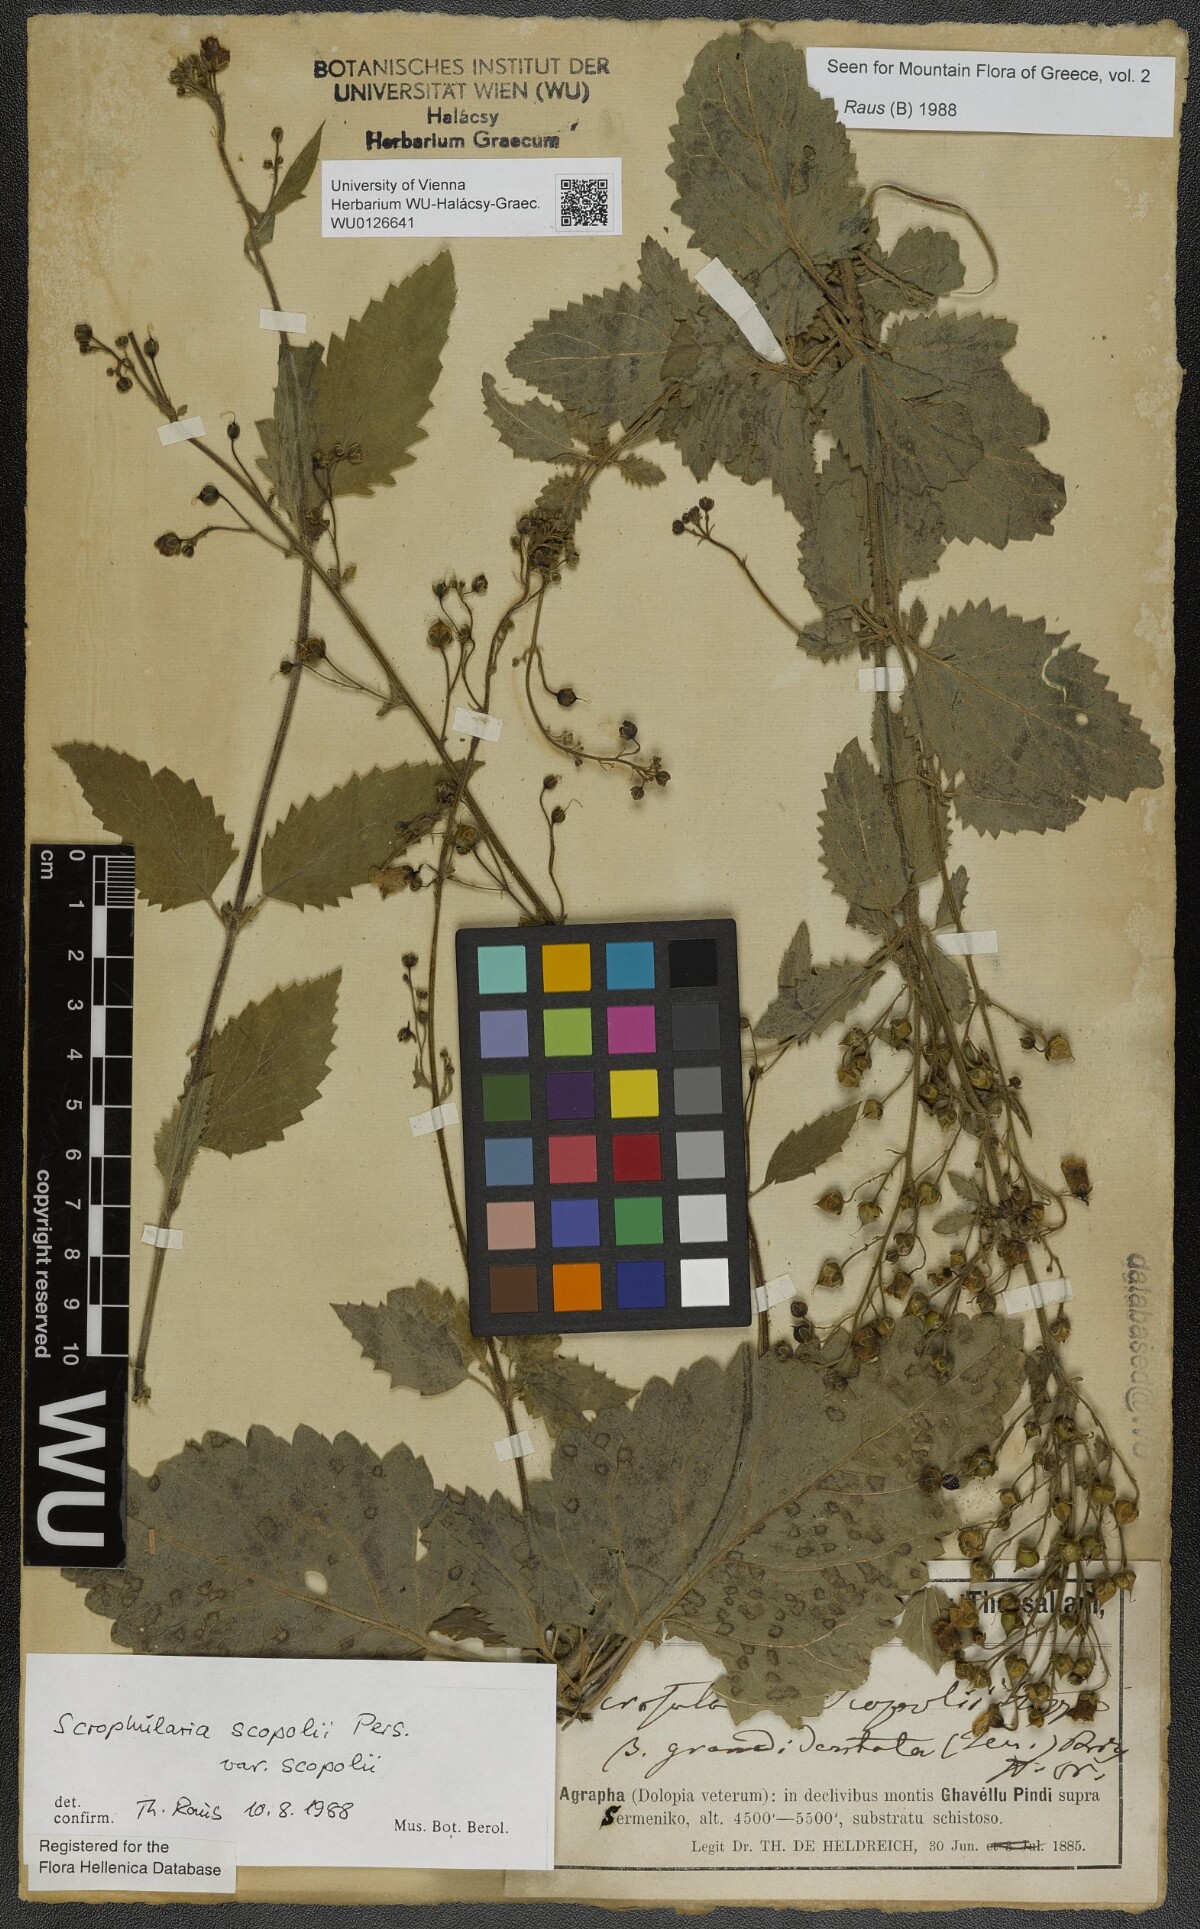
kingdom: Plantae
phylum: Tracheophyta
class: Magnoliopsida
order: Lamiales
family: Scrophulariaceae
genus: Scrophularia
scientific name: Scrophularia scopolii
